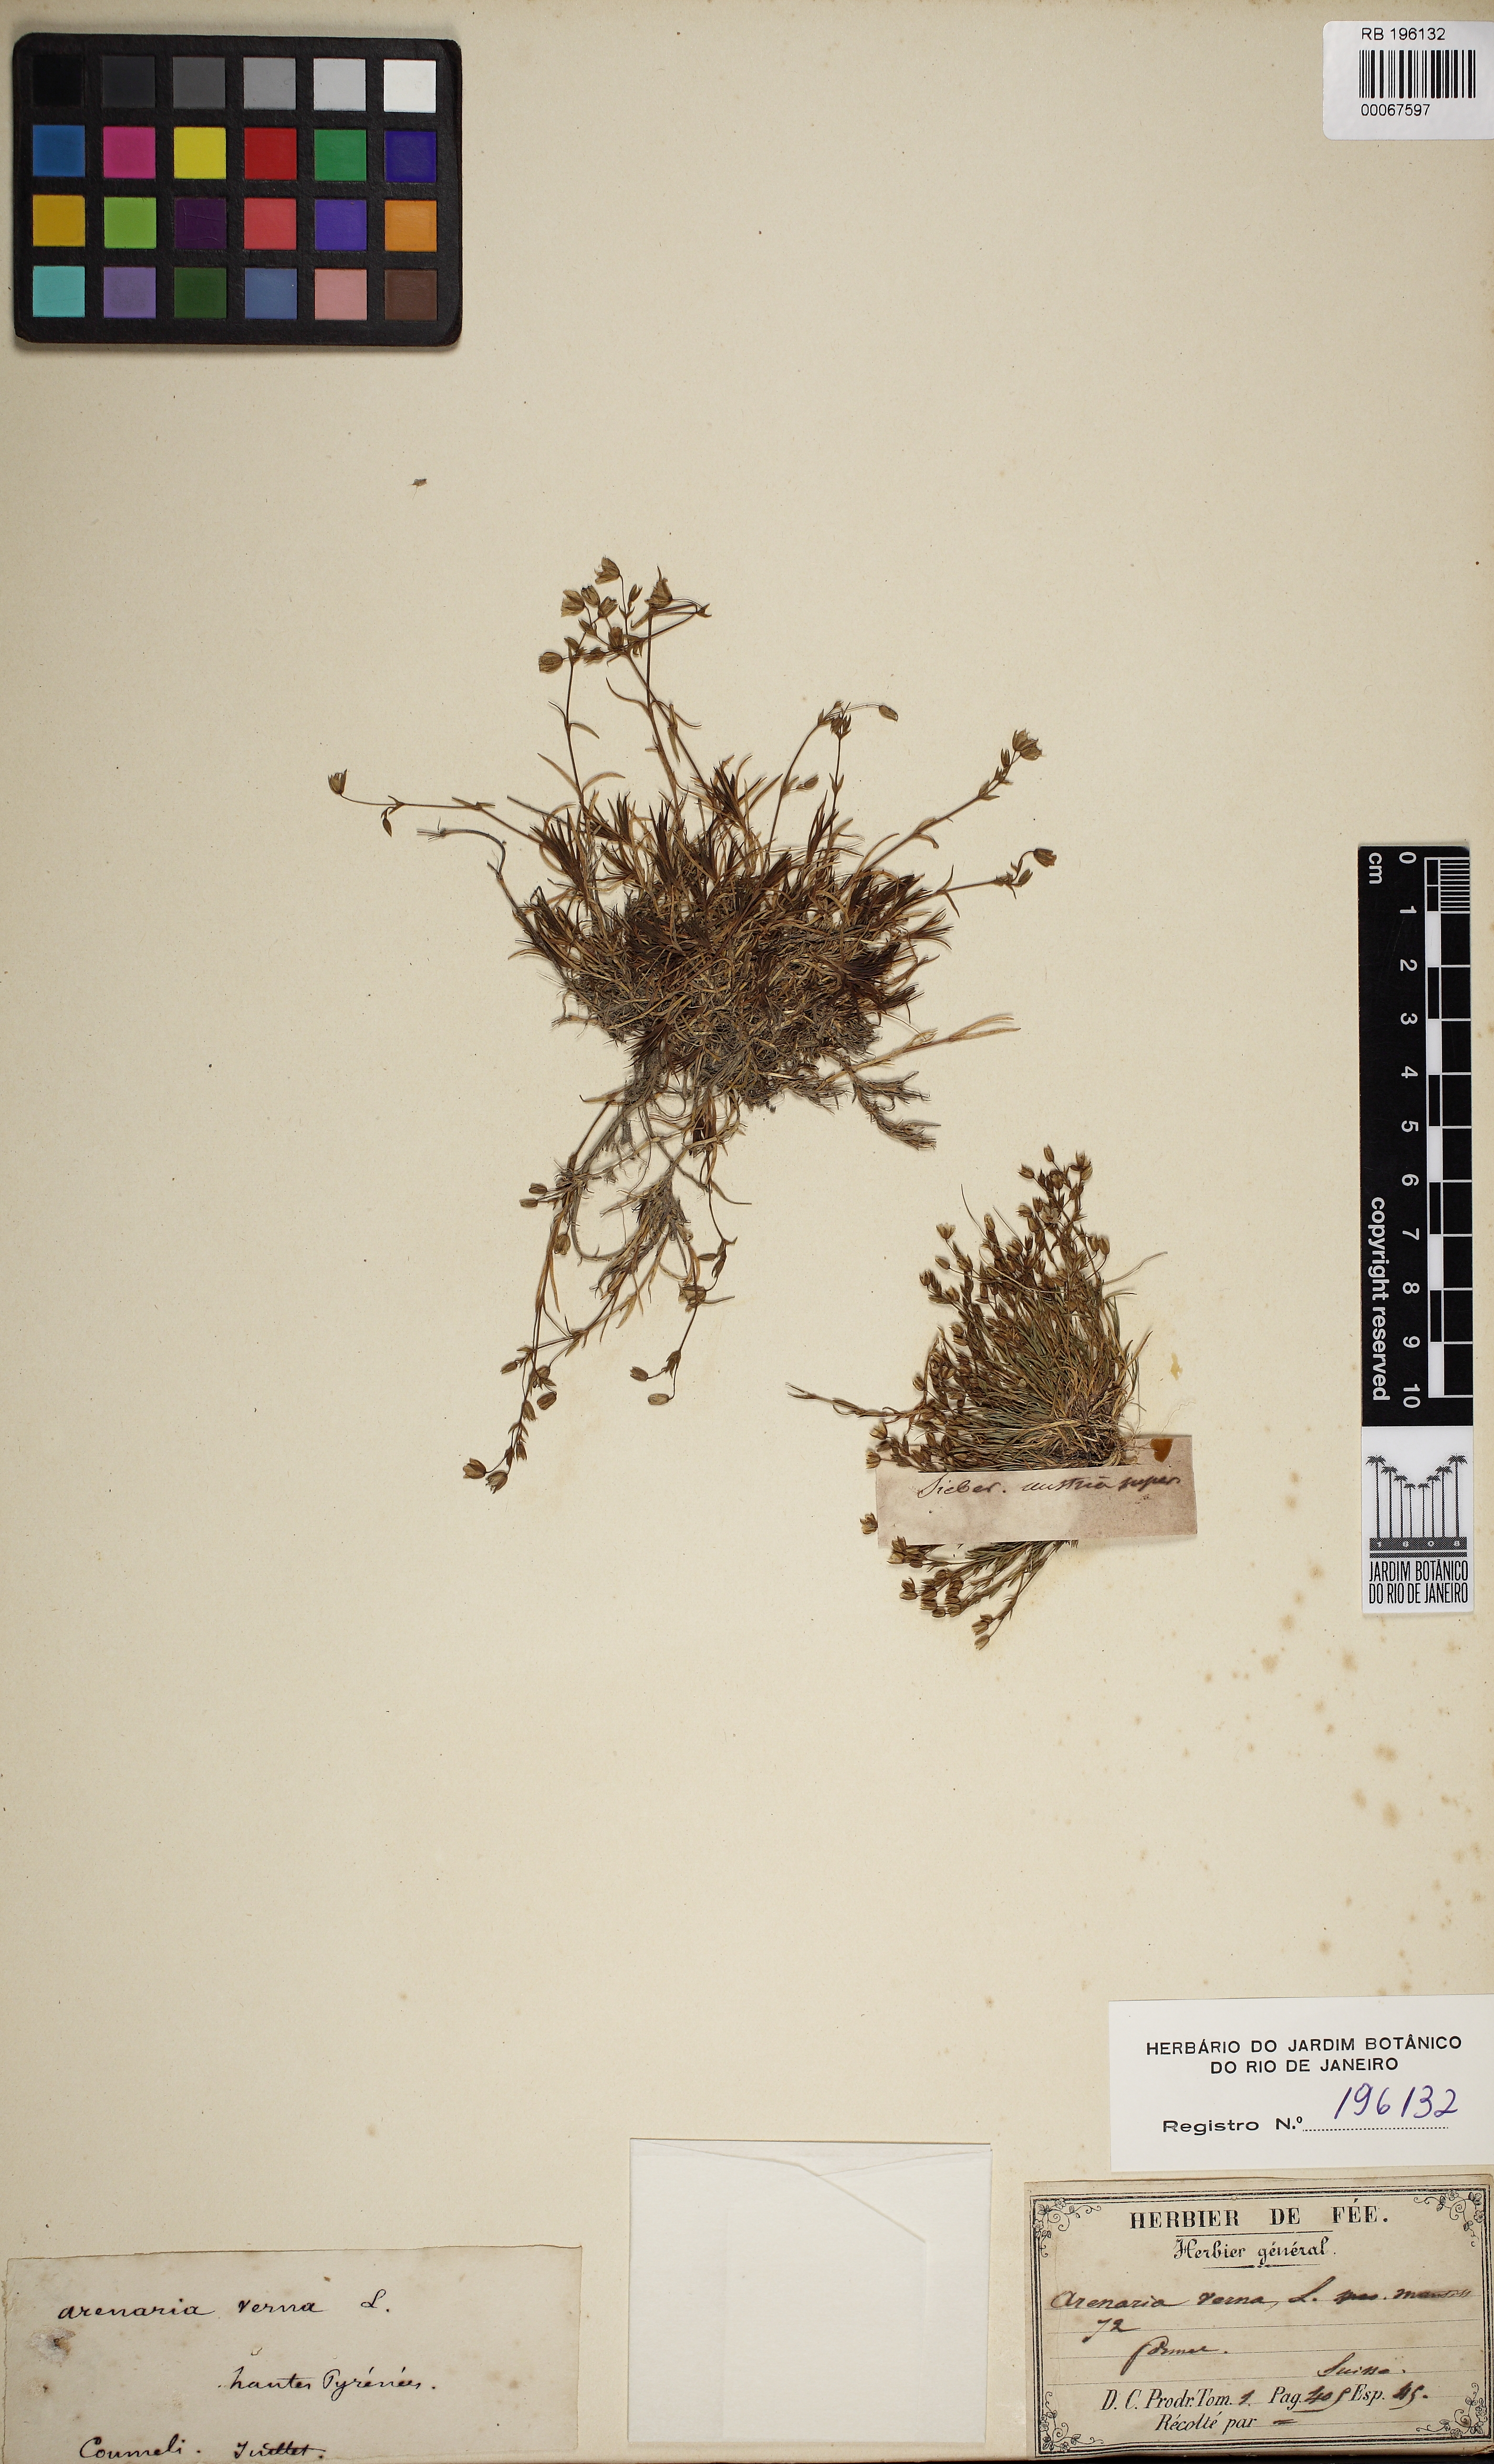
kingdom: Plantae
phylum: Tracheophyta
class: Magnoliopsida
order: Caryophyllales
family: Caryophyllaceae
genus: Spergularia
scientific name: Spergularia rubra
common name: Red sand-spurrey
